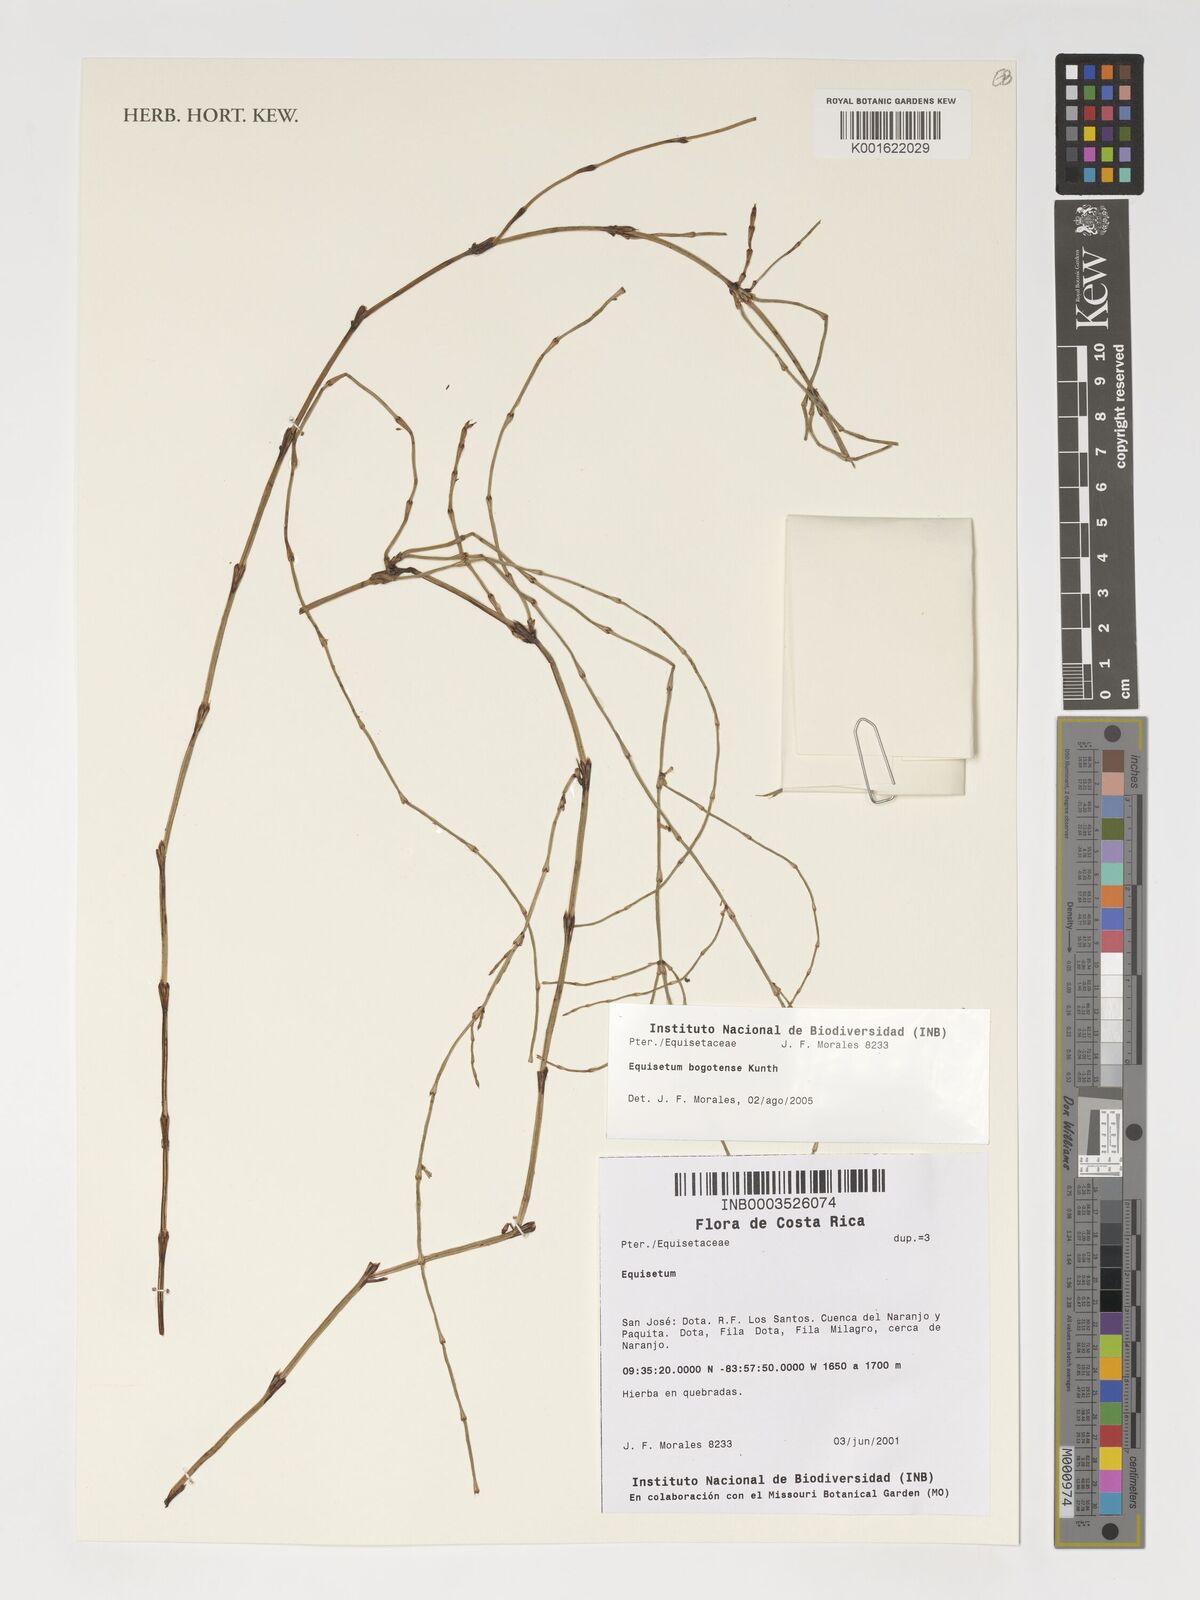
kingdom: Plantae
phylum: Tracheophyta
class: Polypodiopsida
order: Equisetales
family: Equisetaceae
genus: Equisetum
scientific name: Equisetum bogotense
